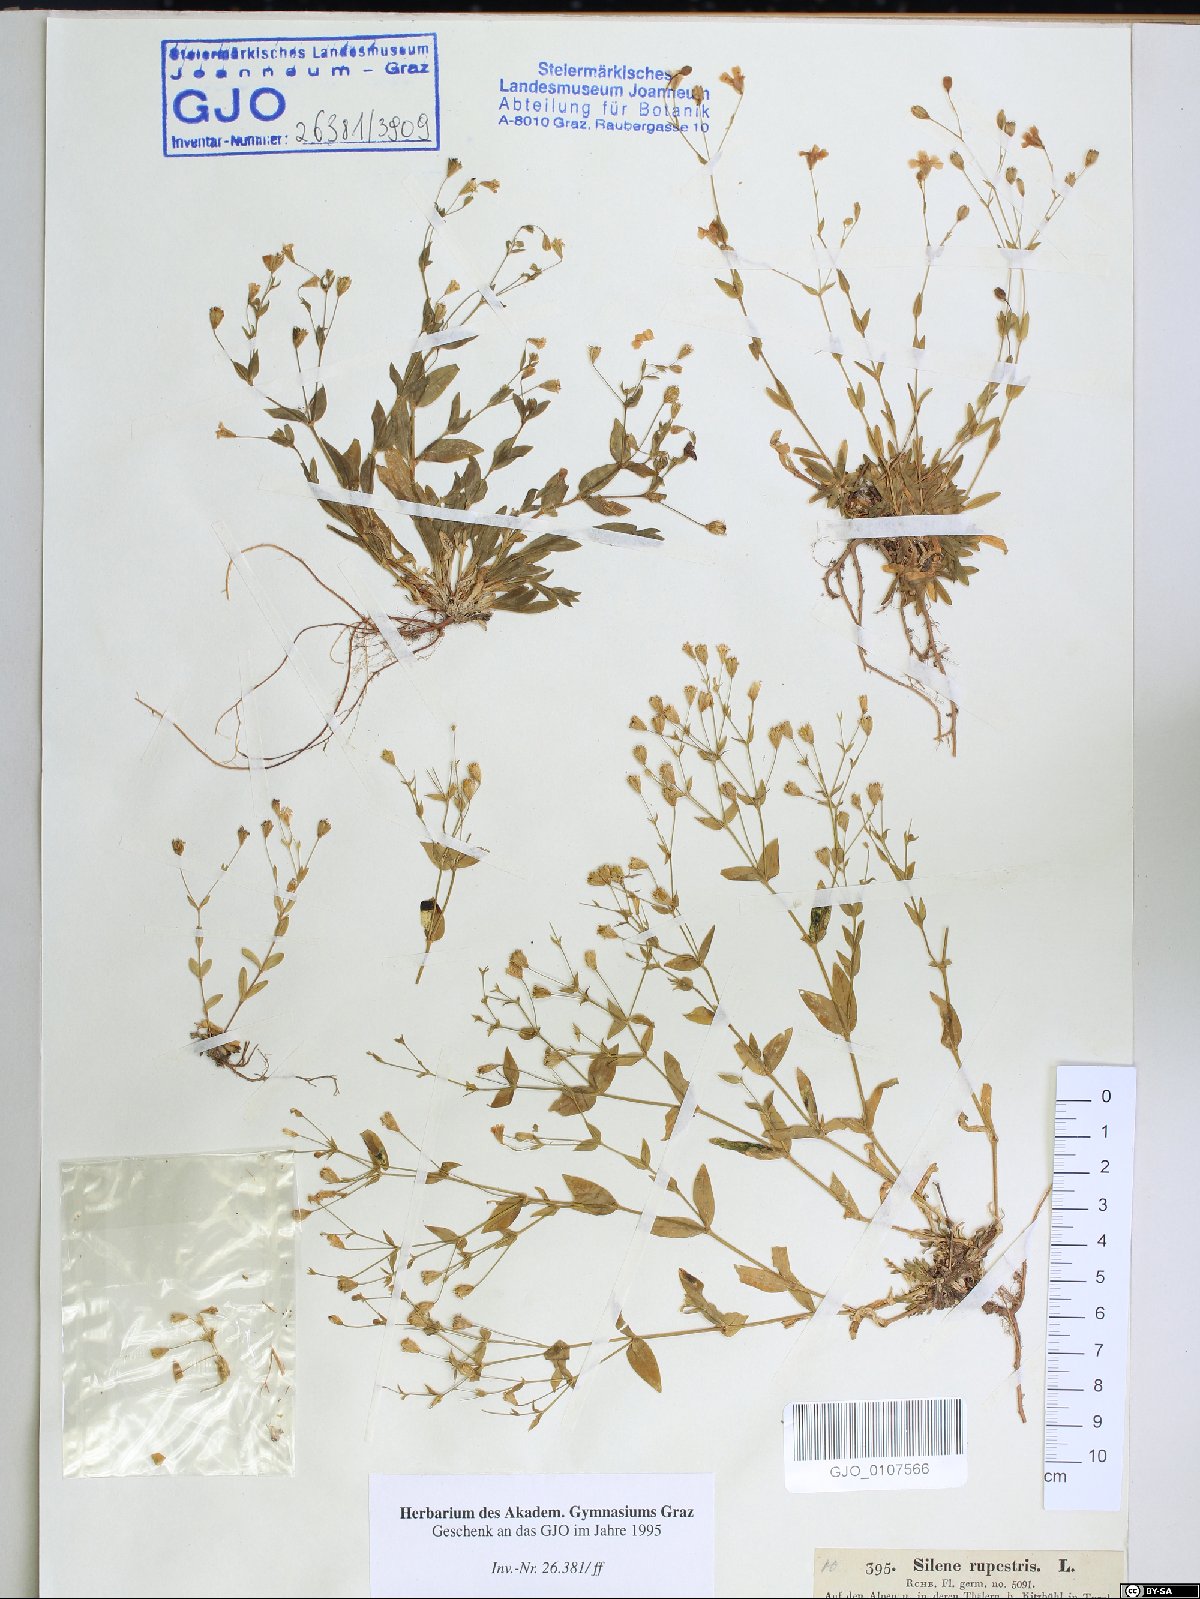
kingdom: Plantae
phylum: Tracheophyta
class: Magnoliopsida
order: Caryophyllales
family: Caryophyllaceae
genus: Atocion
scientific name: Atocion rupestre
